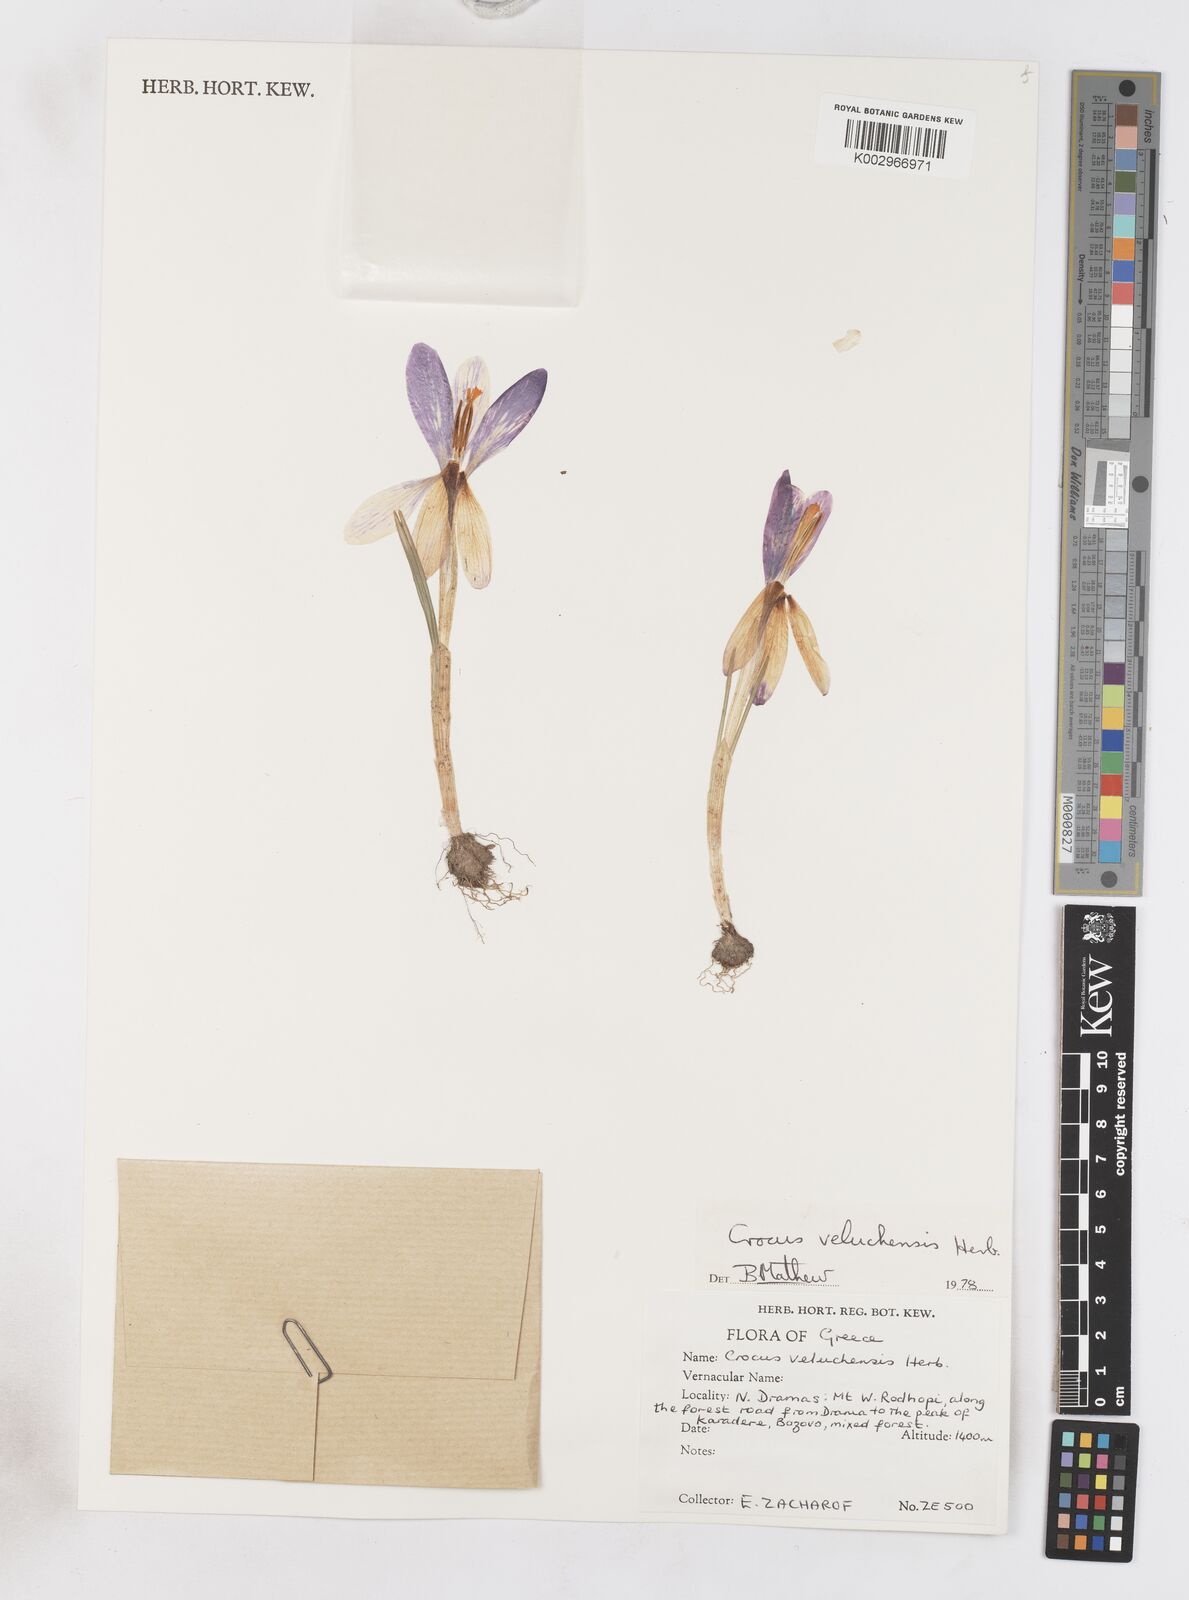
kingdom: Plantae
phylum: Tracheophyta
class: Liliopsida
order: Asparagales
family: Iridaceae
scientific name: Iridaceae
